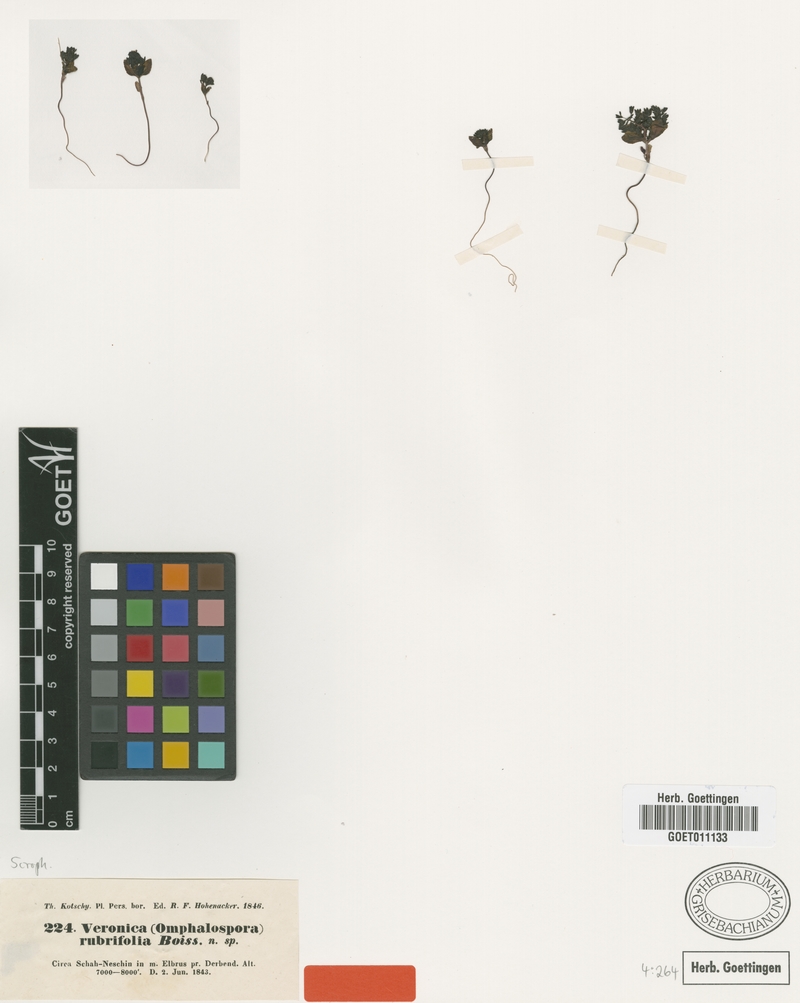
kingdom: Plantae
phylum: Tracheophyta
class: Magnoliopsida
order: Lamiales
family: Plantaginaceae
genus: Veronica
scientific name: Veronica rubrifolia
